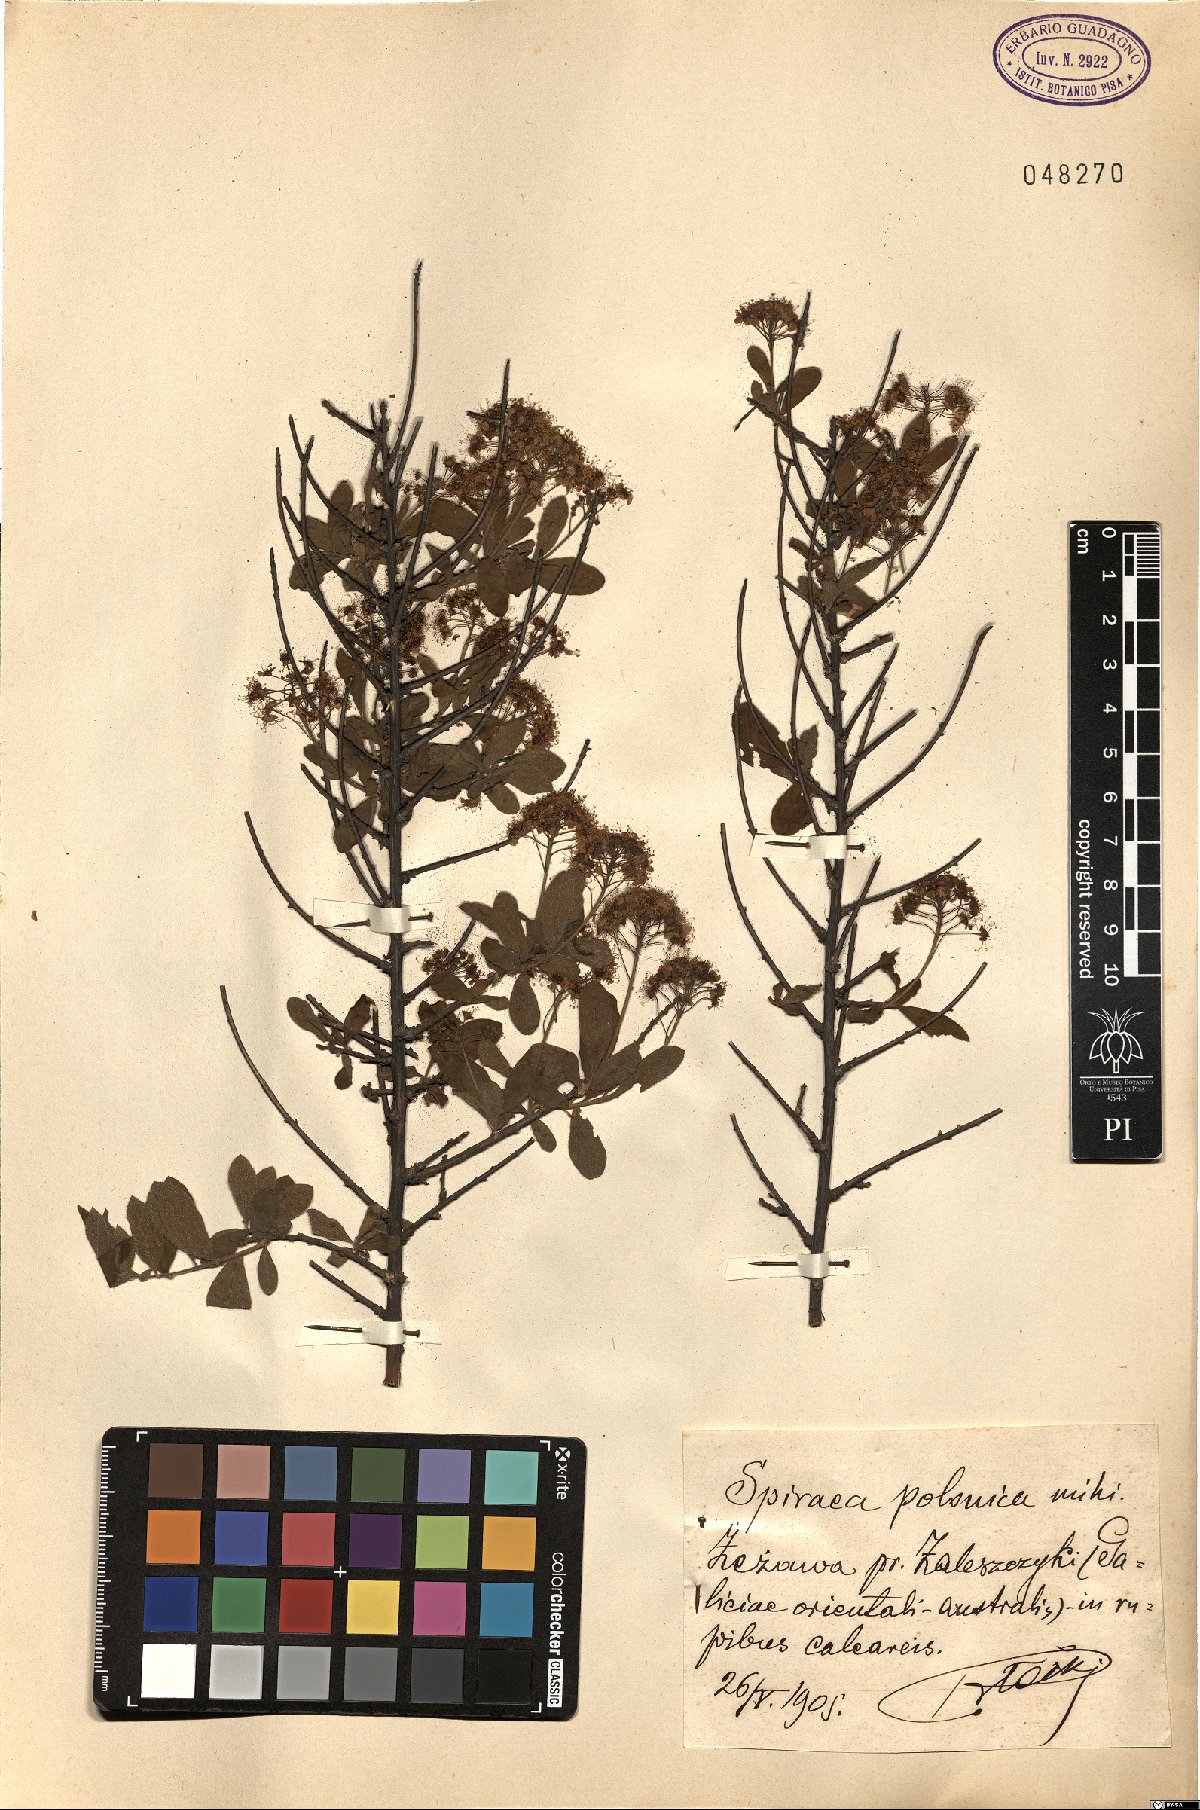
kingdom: Plantae
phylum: Tracheophyta
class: Magnoliopsida
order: Rosales
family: Rosaceae
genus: Spiraea
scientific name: Spiraea media
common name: Russian spiraea
